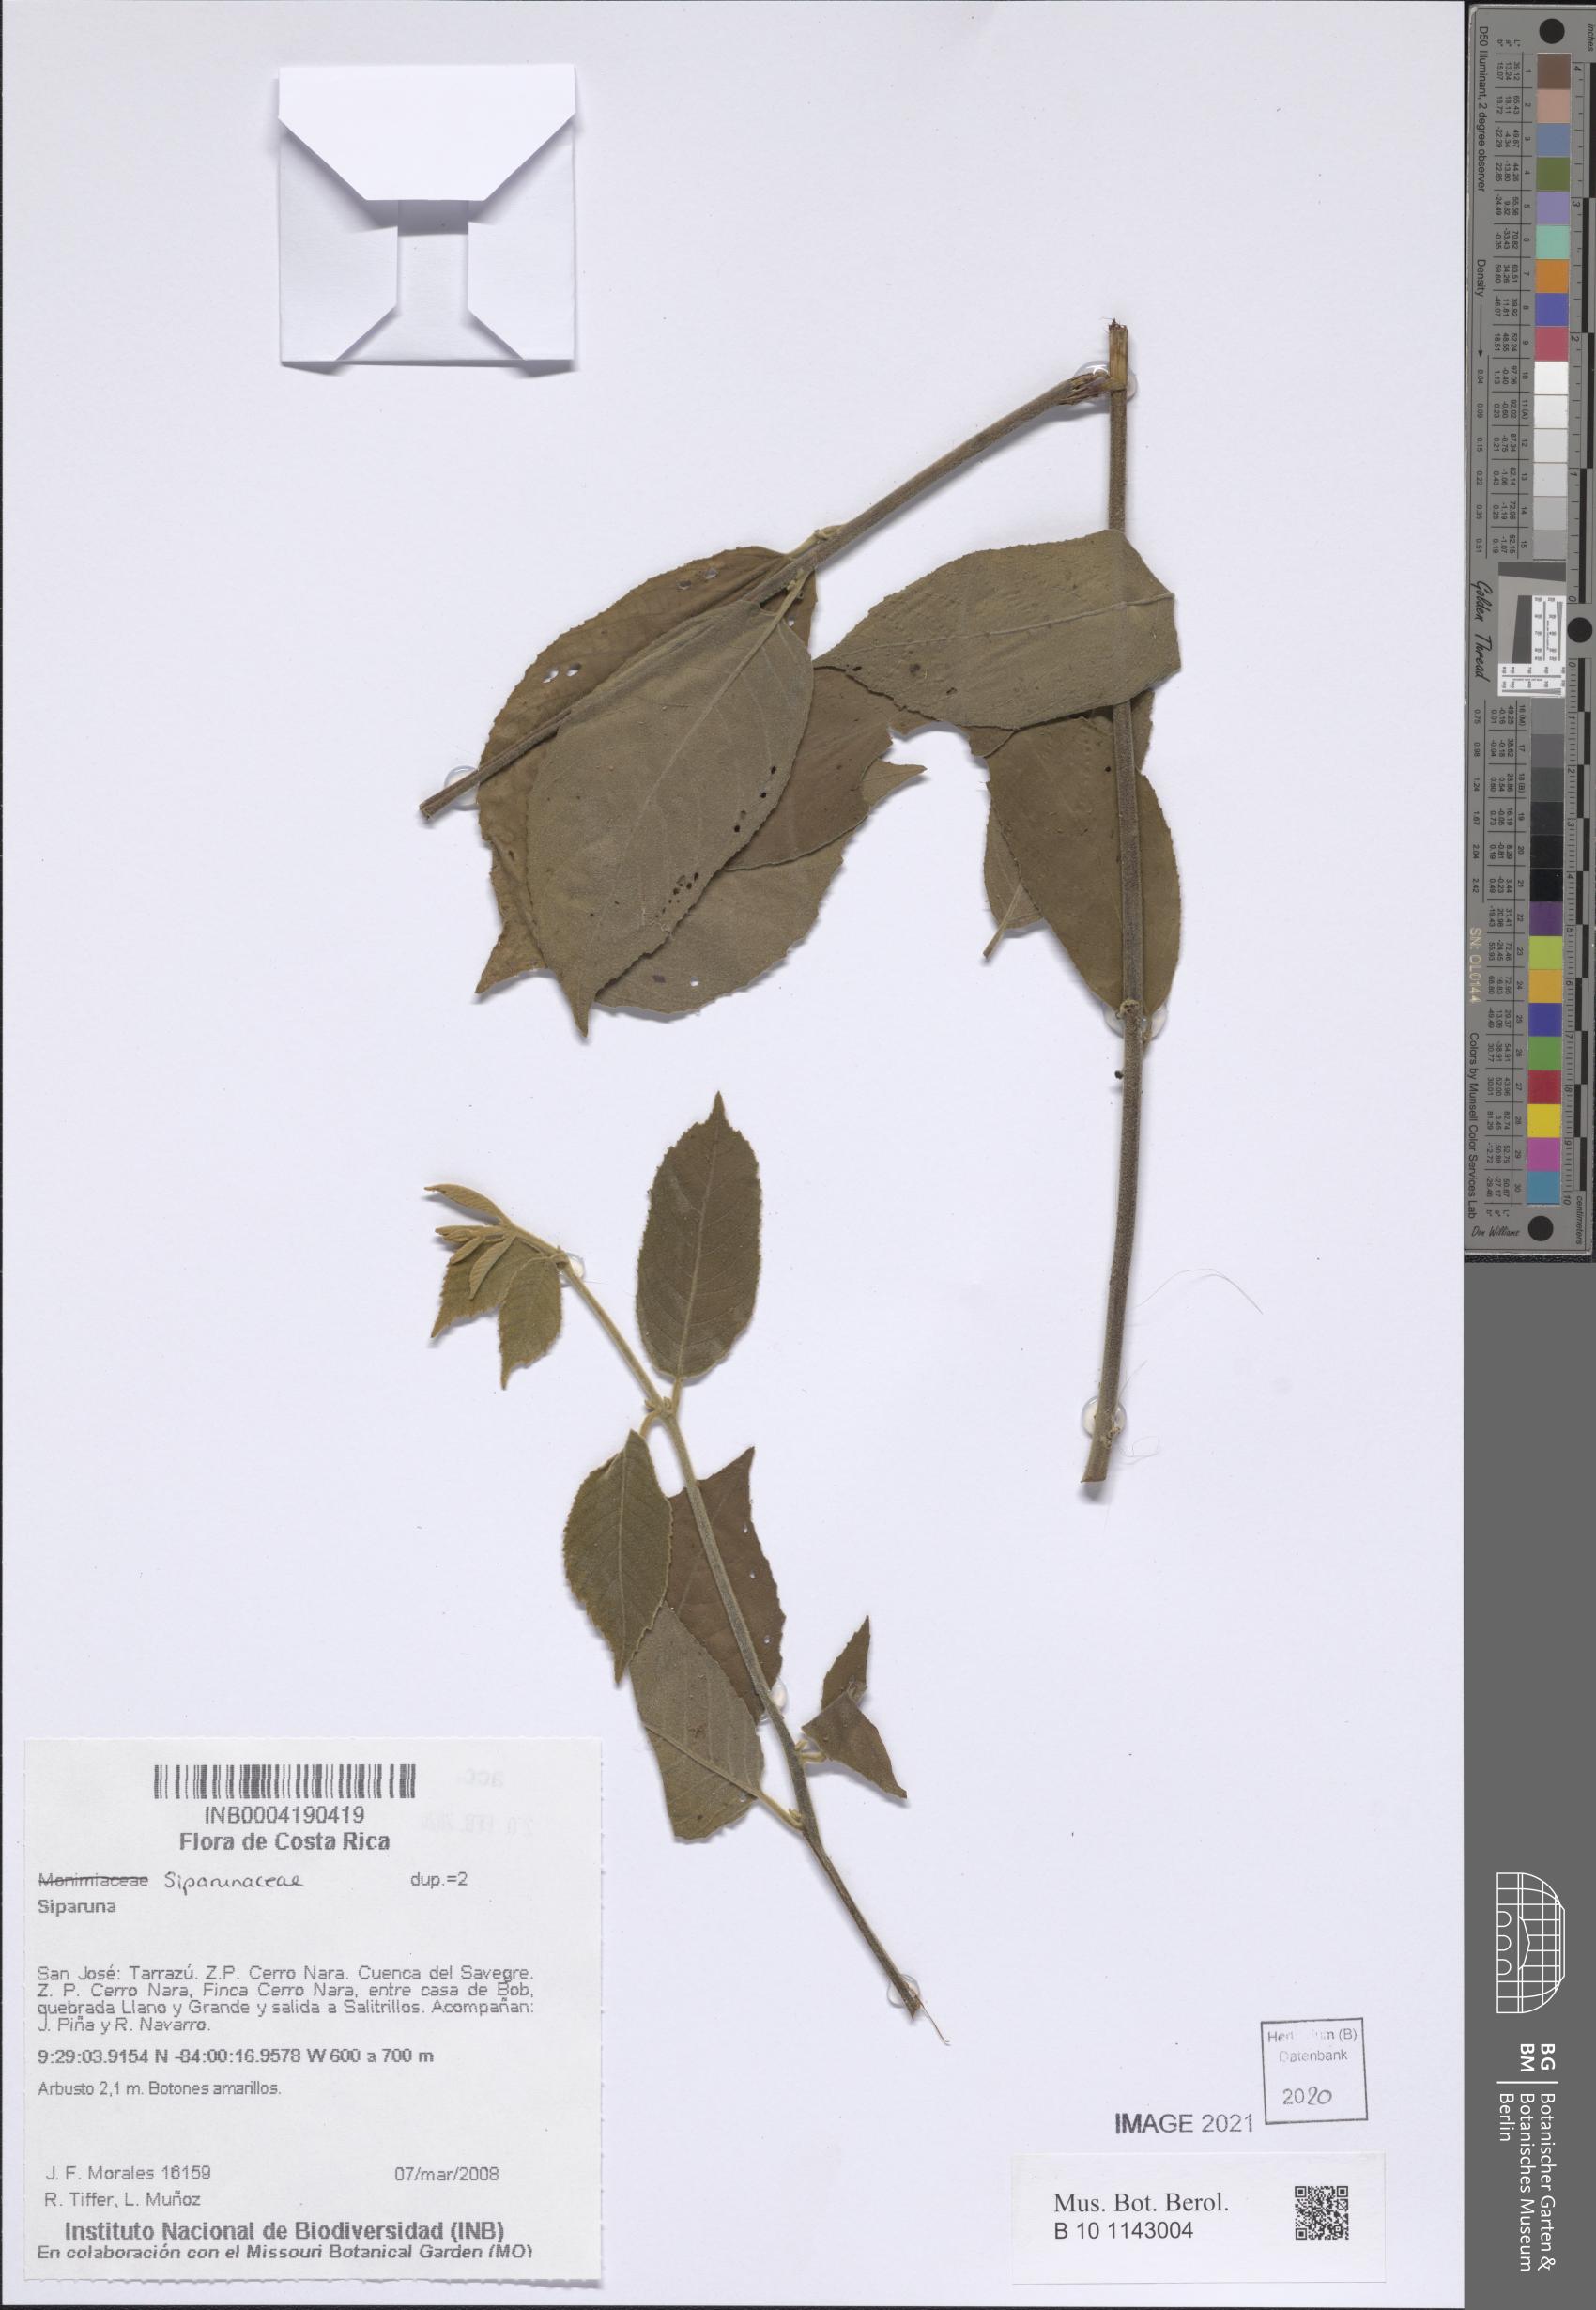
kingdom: Plantae
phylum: Tracheophyta
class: Magnoliopsida
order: Laurales
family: Siparunaceae
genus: Siparuna
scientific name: Siparuna
